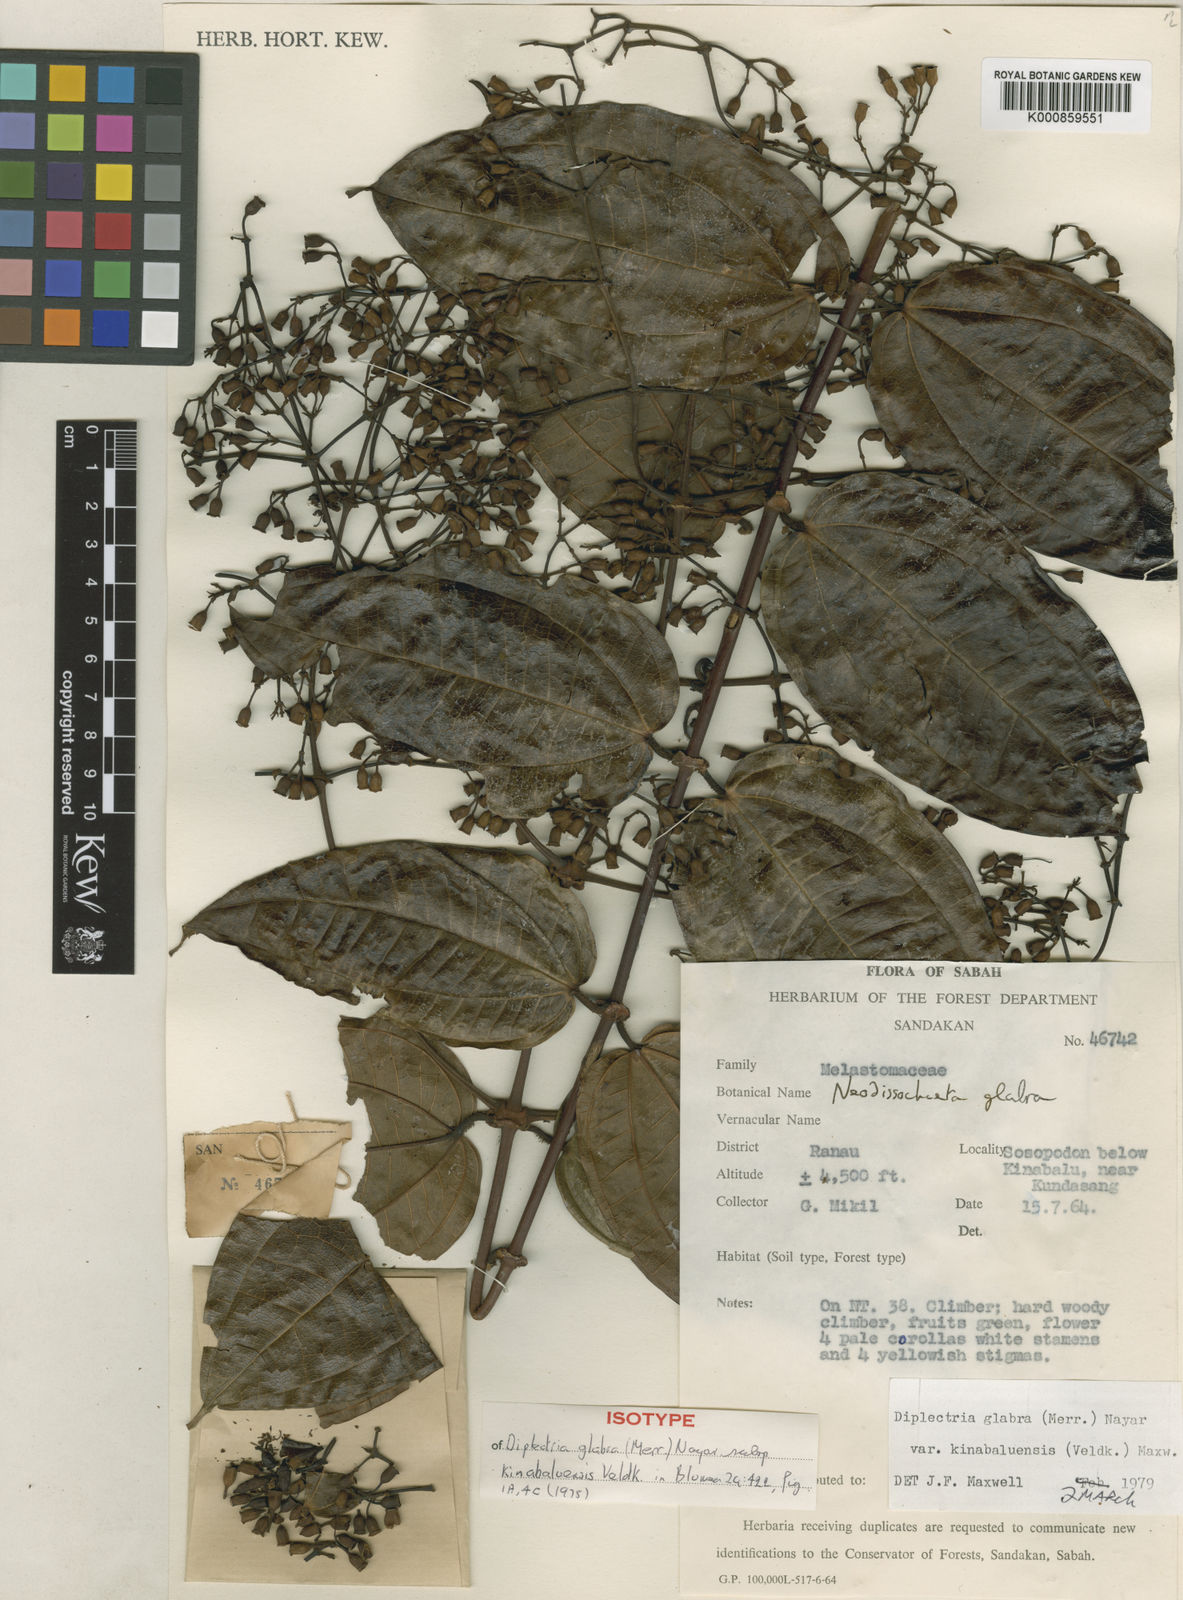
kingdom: Plantae
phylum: Tracheophyta
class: Magnoliopsida
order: Myrtales
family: Melastomataceae
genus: Dalenia
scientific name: Dalenia glabra
